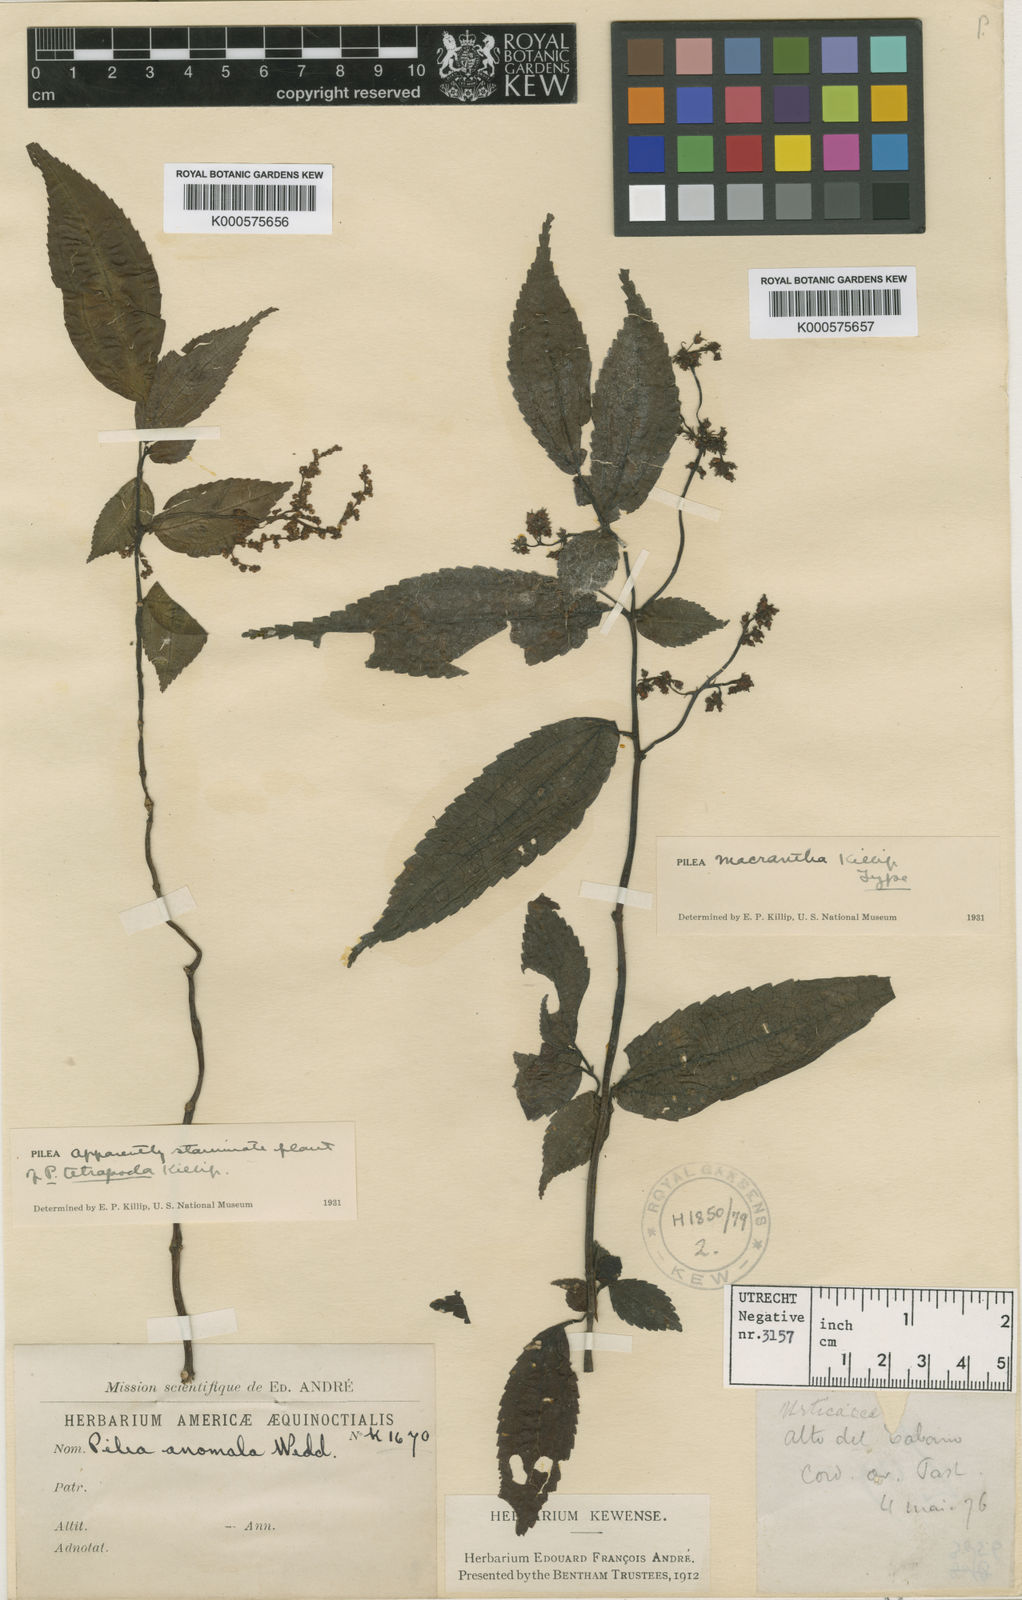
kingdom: Plantae
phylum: Tracheophyta
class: Magnoliopsida
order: Rosales
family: Urticaceae
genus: Pilea
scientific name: Pilea macrantha
